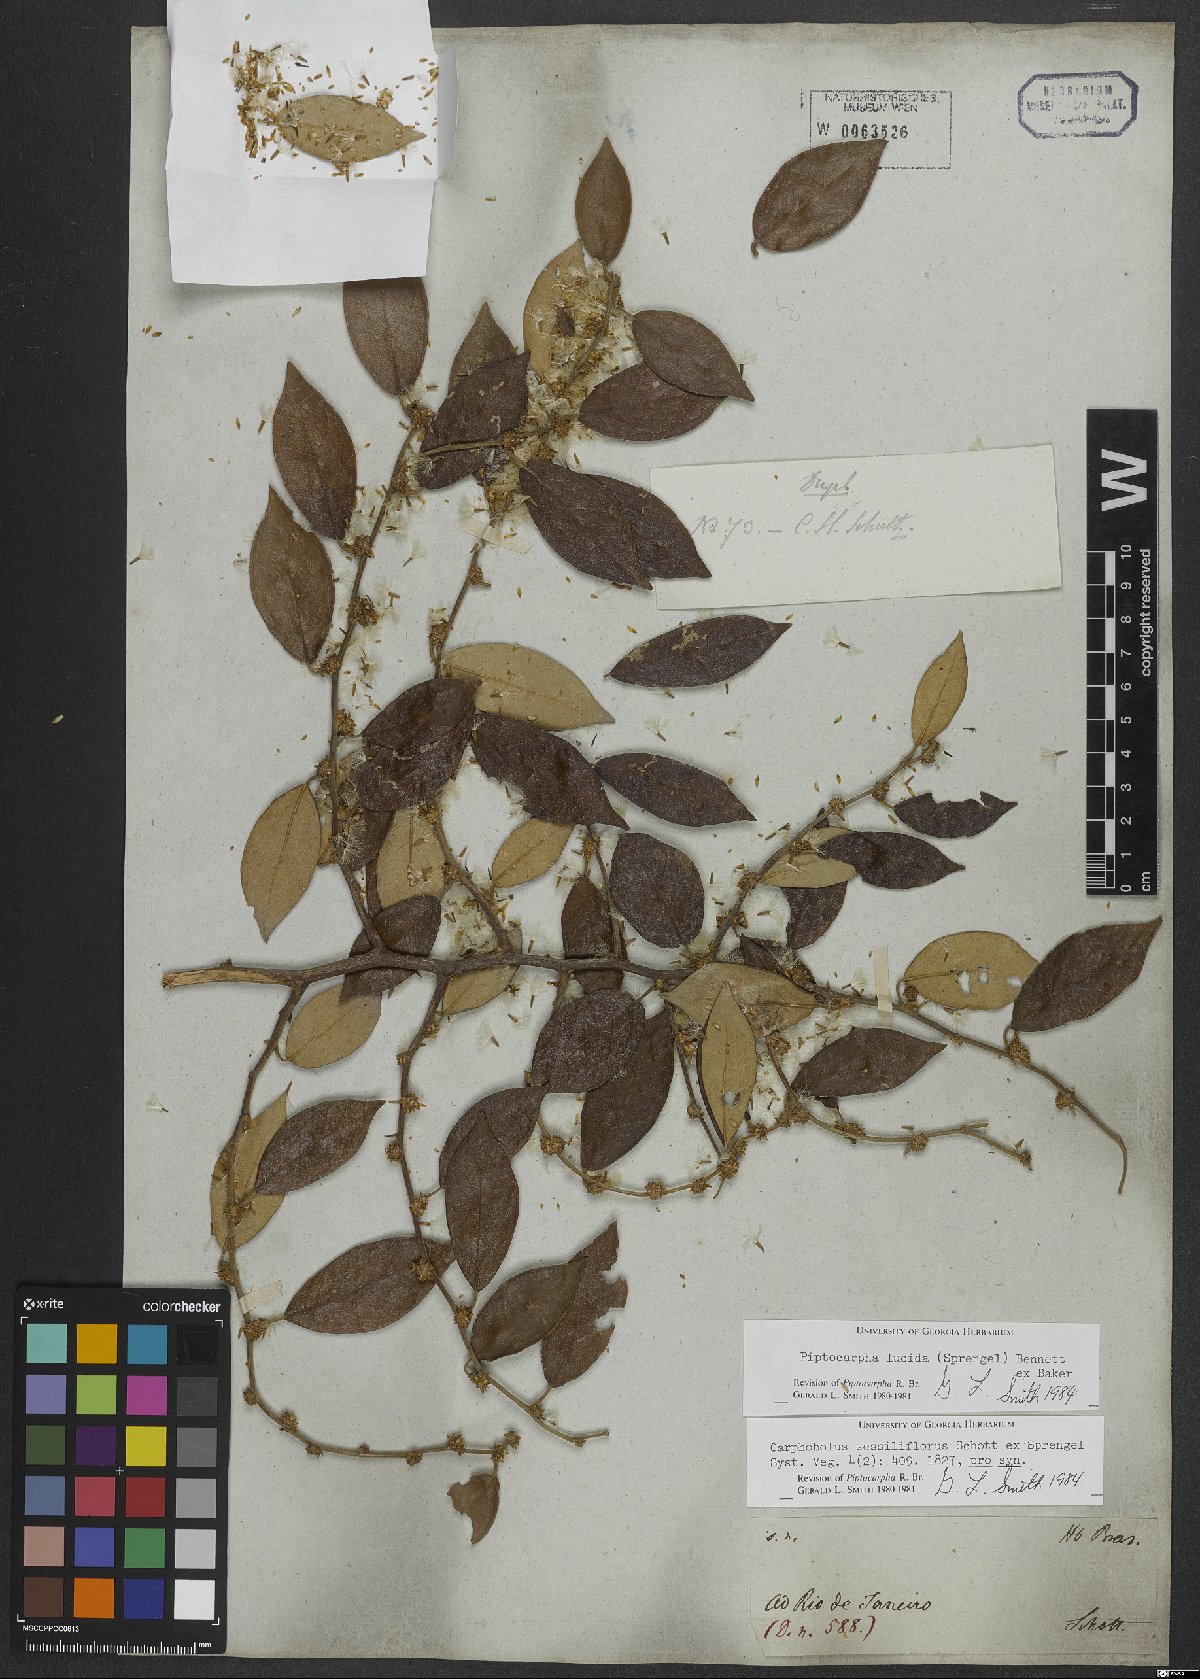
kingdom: Plantae
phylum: Tracheophyta
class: Magnoliopsida
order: Asterales
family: Asteraceae
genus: Piptocarpha
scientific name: Piptocarpha lucida
